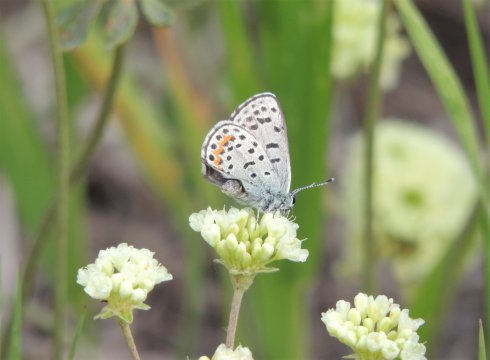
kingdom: Animalia
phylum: Arthropoda
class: Insecta
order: Lepidoptera
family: Lycaenidae
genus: Euphilotes
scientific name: Euphilotes
